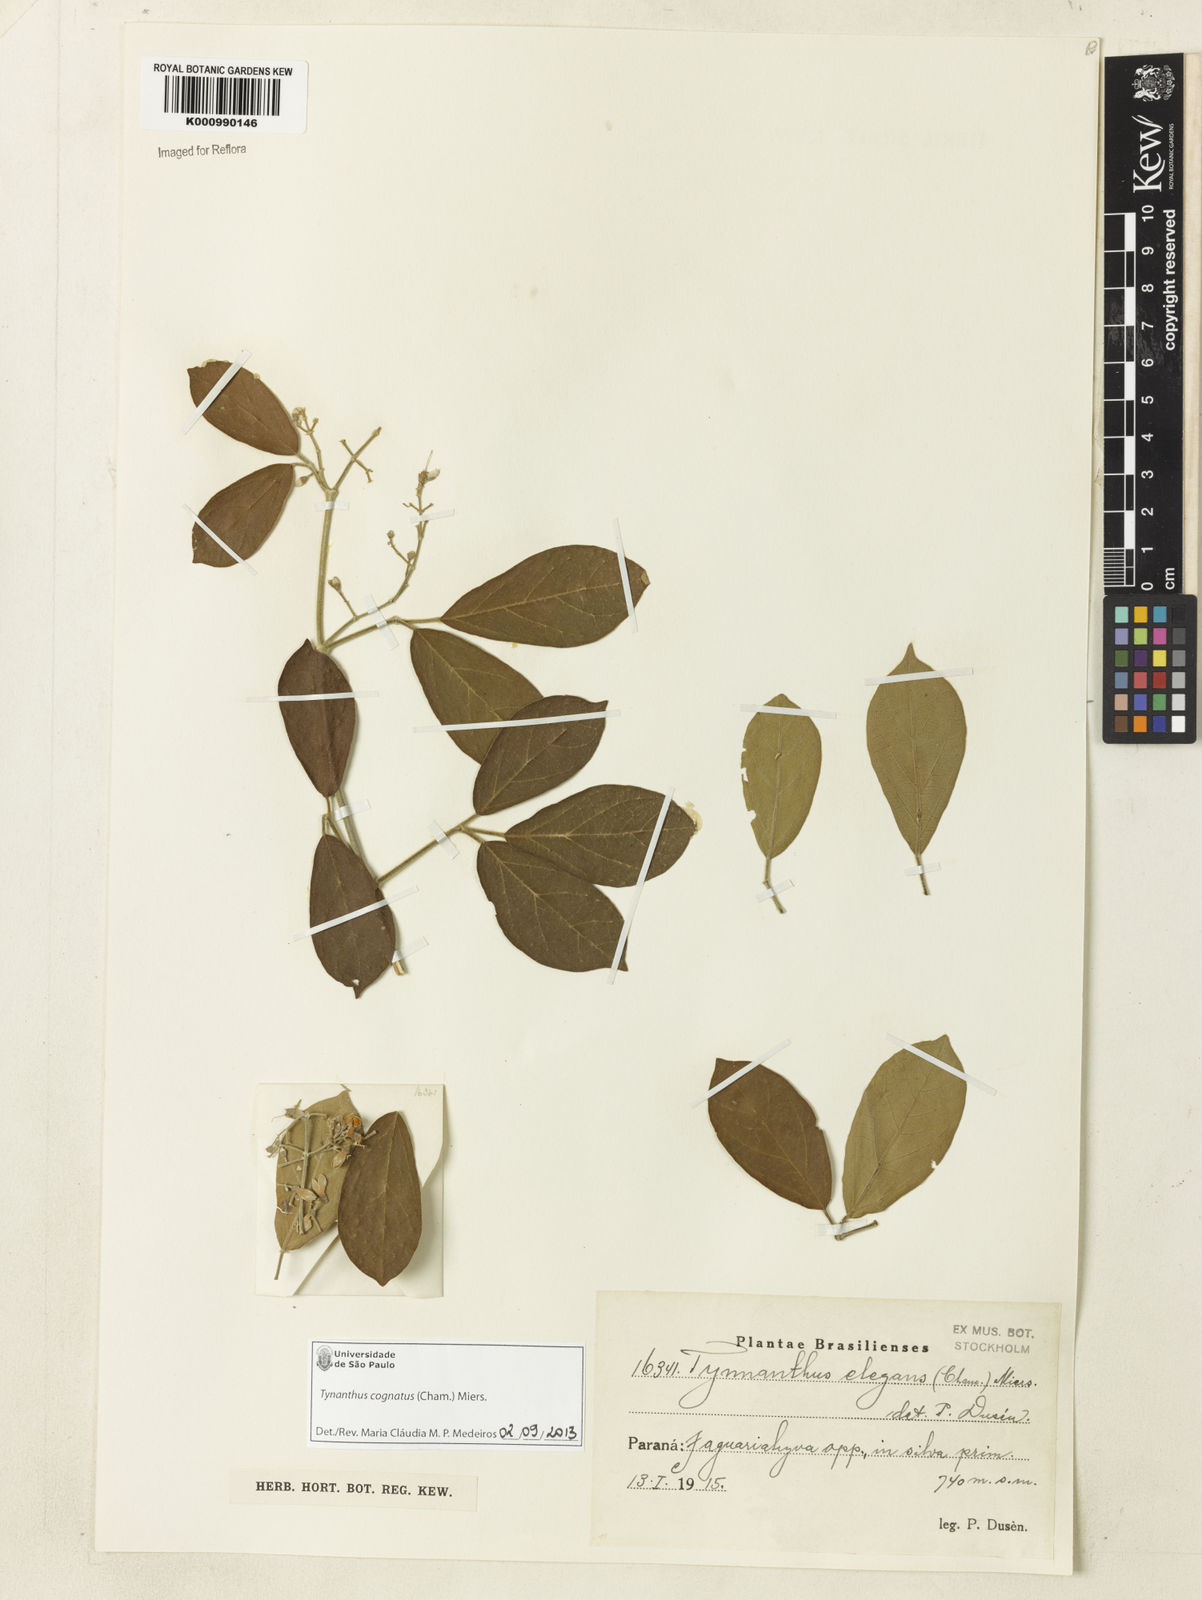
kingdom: Plantae
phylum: Tracheophyta
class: Magnoliopsida
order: Lamiales
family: Bignoniaceae
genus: Tynanthus
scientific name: Tynanthus cognatus
